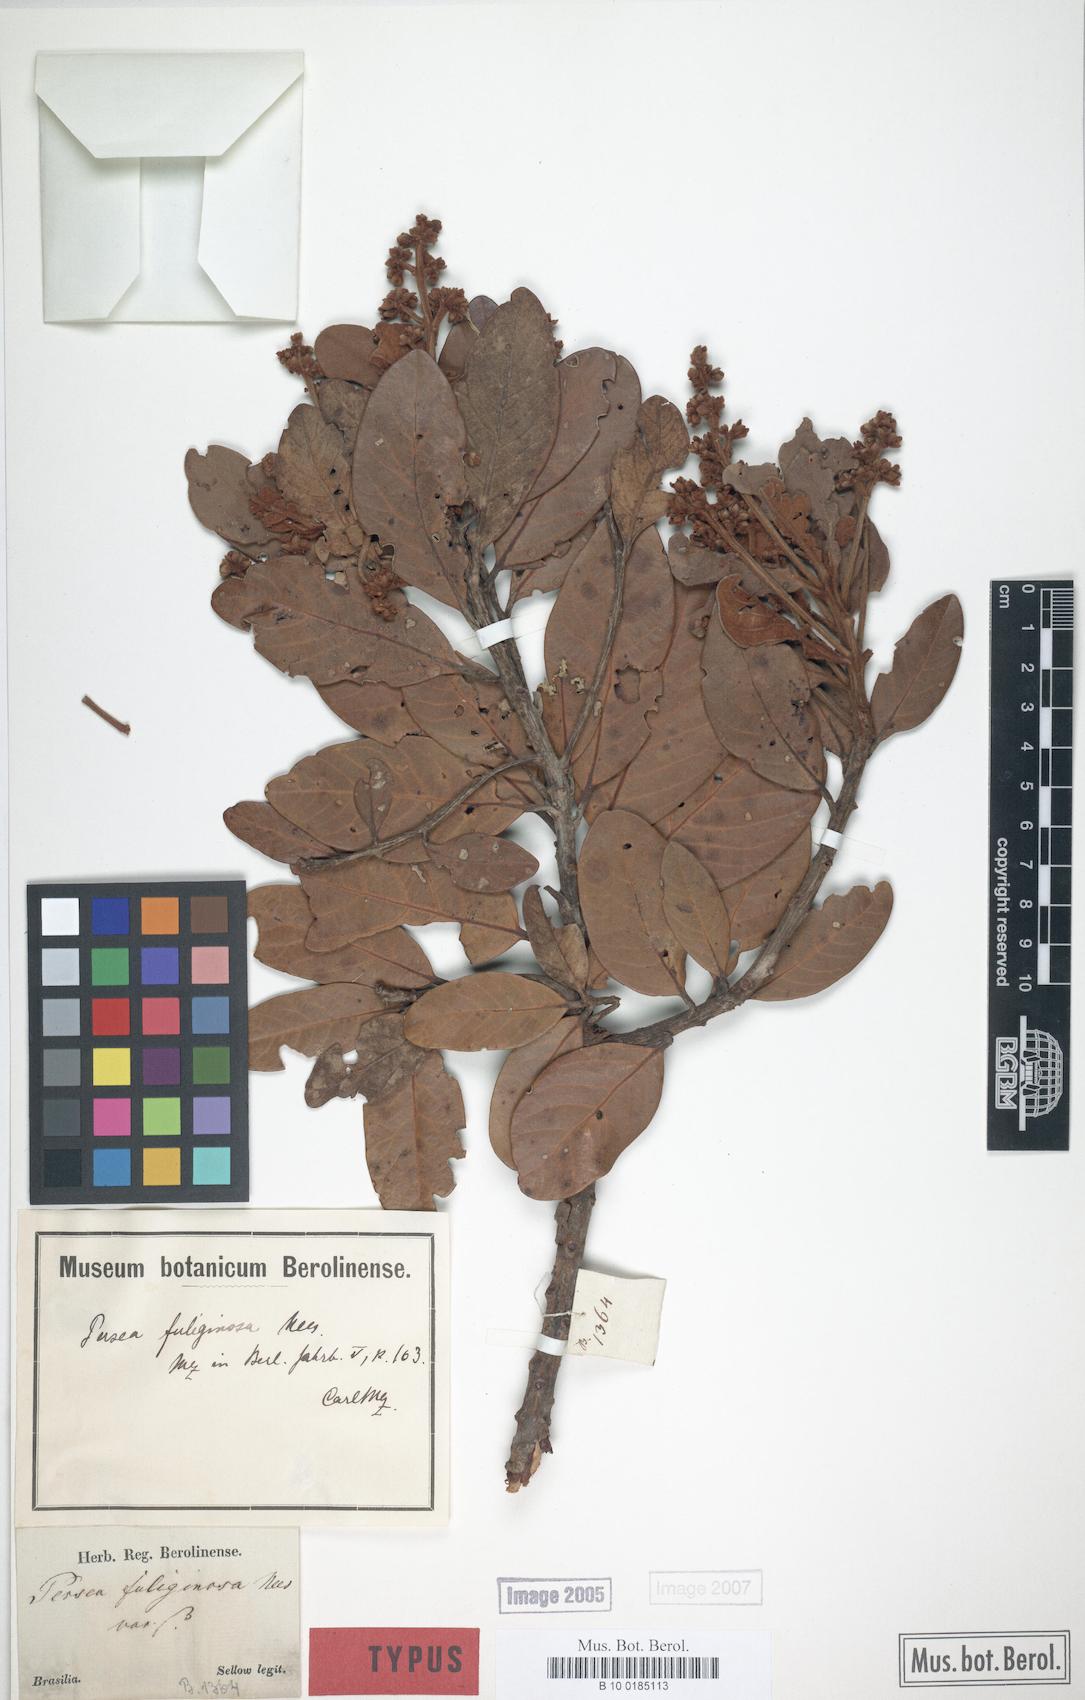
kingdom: Plantae
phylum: Tracheophyta
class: Magnoliopsida
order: Laurales
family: Lauraceae
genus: Persea
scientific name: Persea fuliginosa
